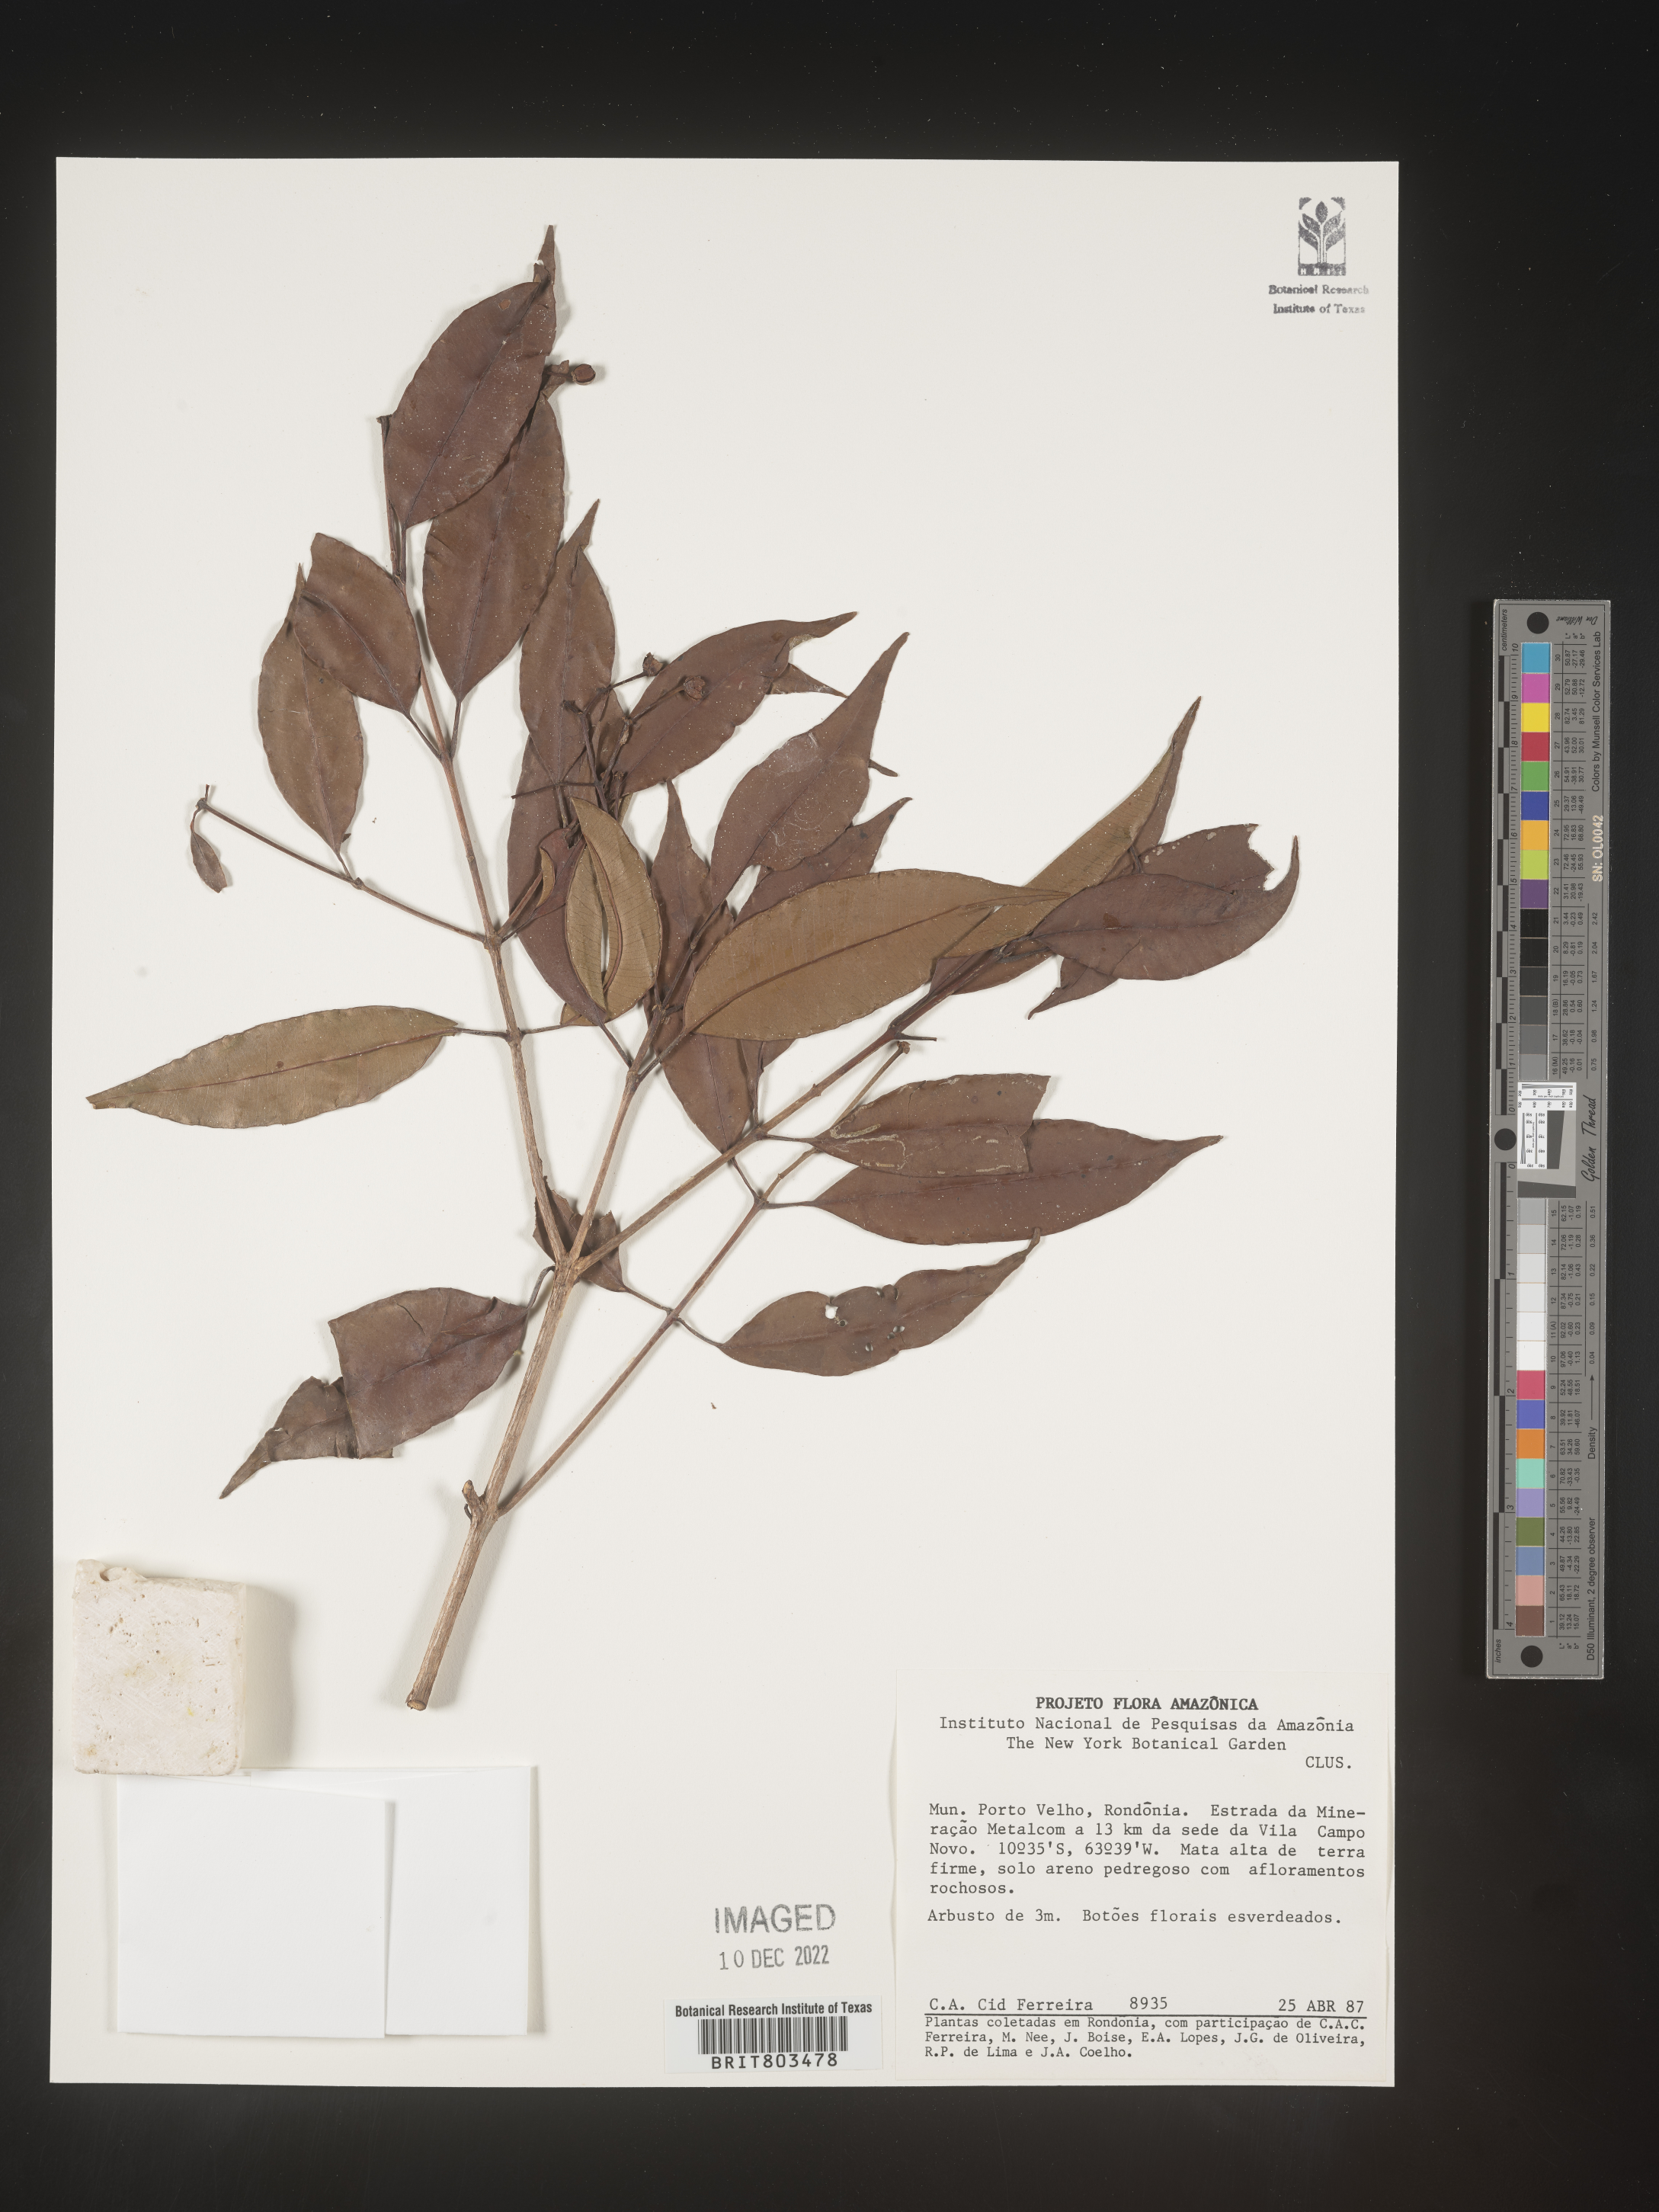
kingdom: Plantae
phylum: Tracheophyta
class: Magnoliopsida
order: Malpighiales
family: Clusiaceae
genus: Tovomita
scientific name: Tovomita
